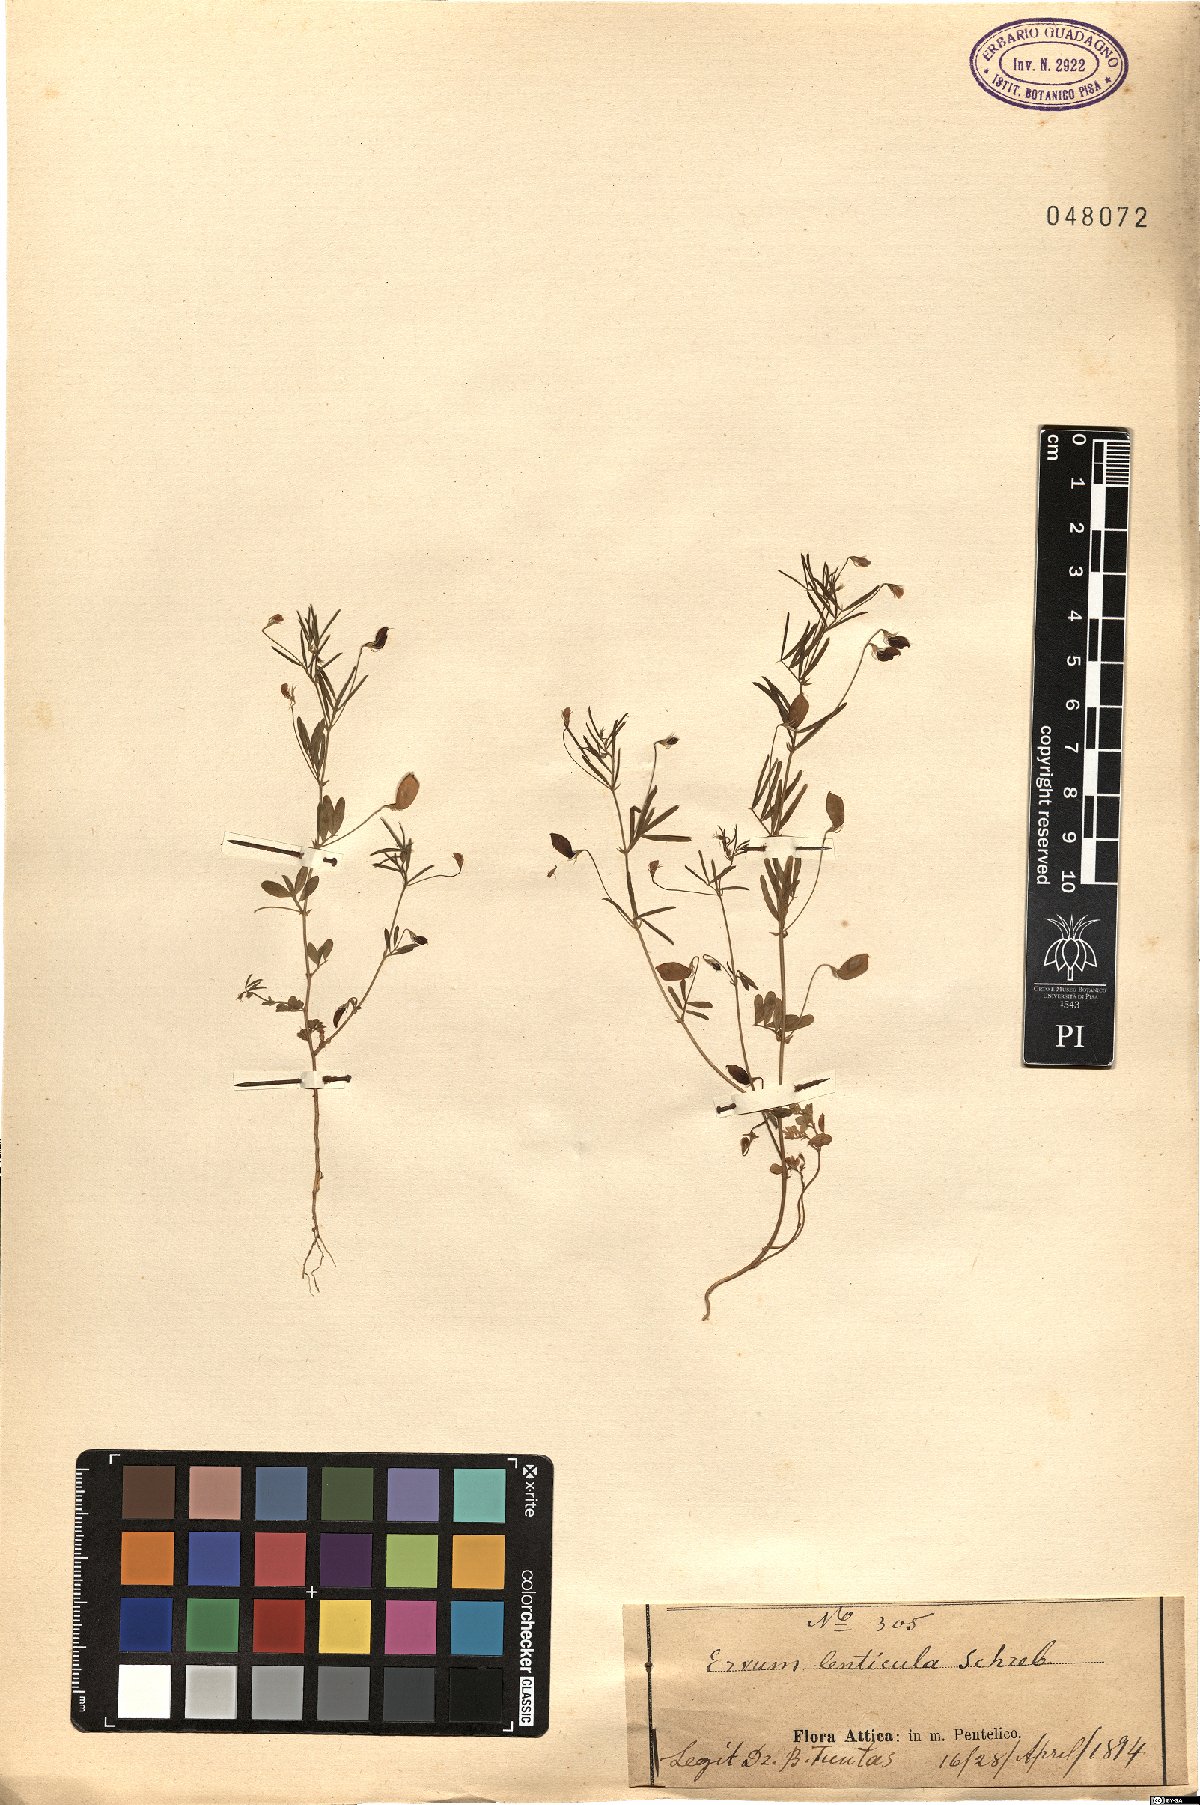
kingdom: Plantae
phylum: Tracheophyta
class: Magnoliopsida
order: Fabales
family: Fabaceae
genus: Vicia
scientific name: Vicia lenticula
